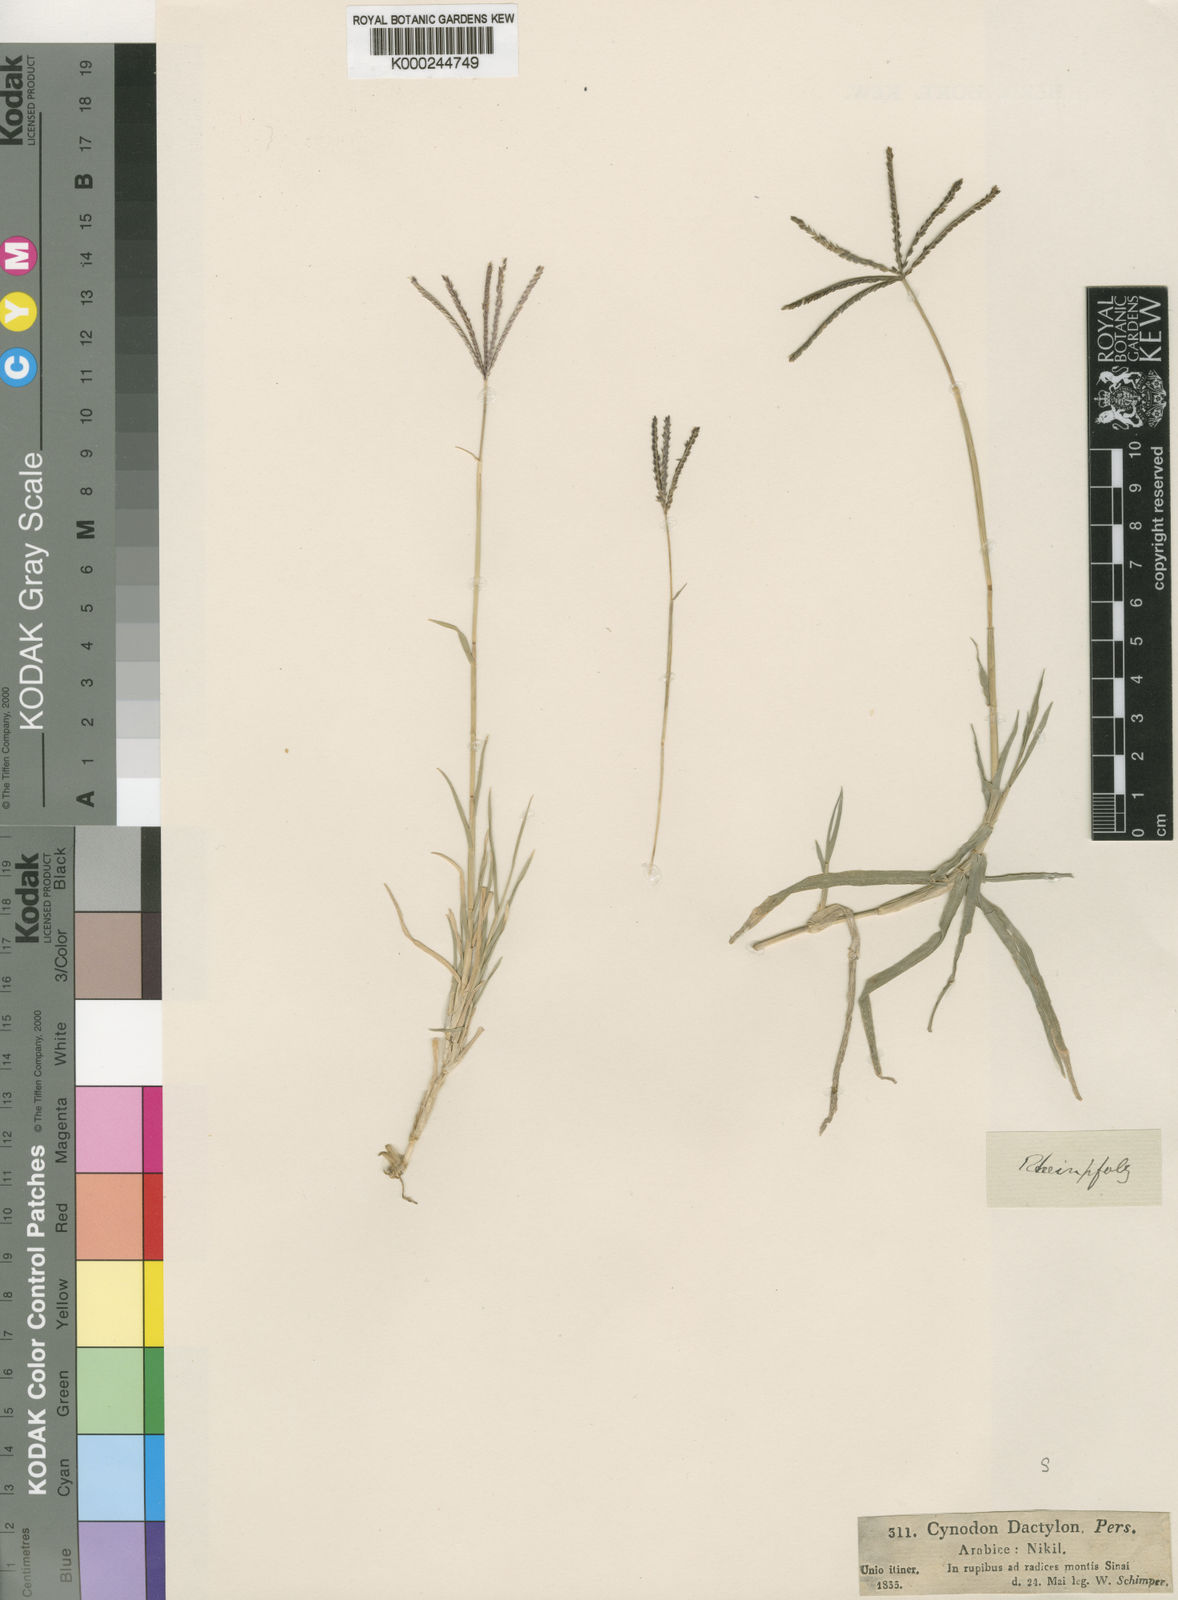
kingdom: Plantae
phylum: Tracheophyta
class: Liliopsida
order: Poales
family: Poaceae
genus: Cynodon
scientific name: Cynodon dactylon
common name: Bermuda grass
